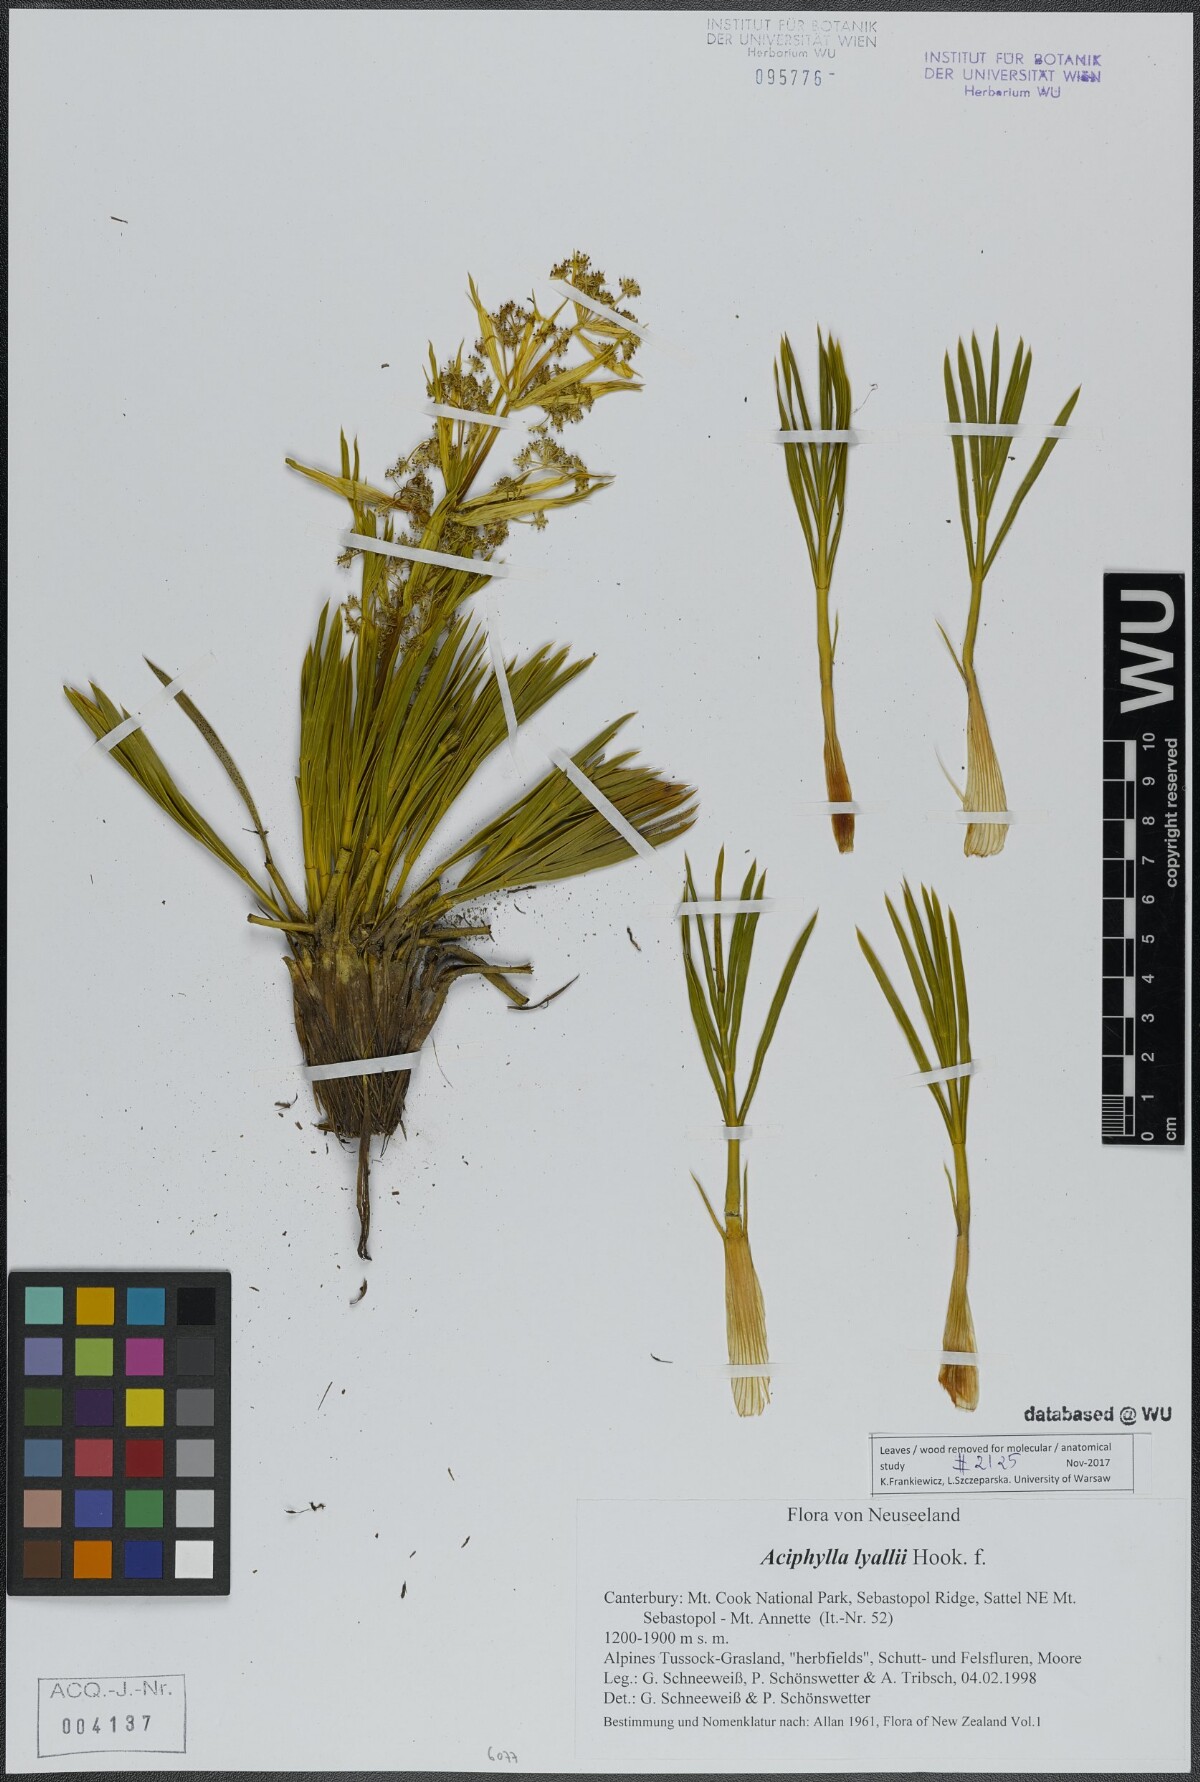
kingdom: Plantae
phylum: Tracheophyta
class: Magnoliopsida
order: Apiales
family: Apiaceae
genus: Aciphylla
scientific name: Aciphylla lyallii
